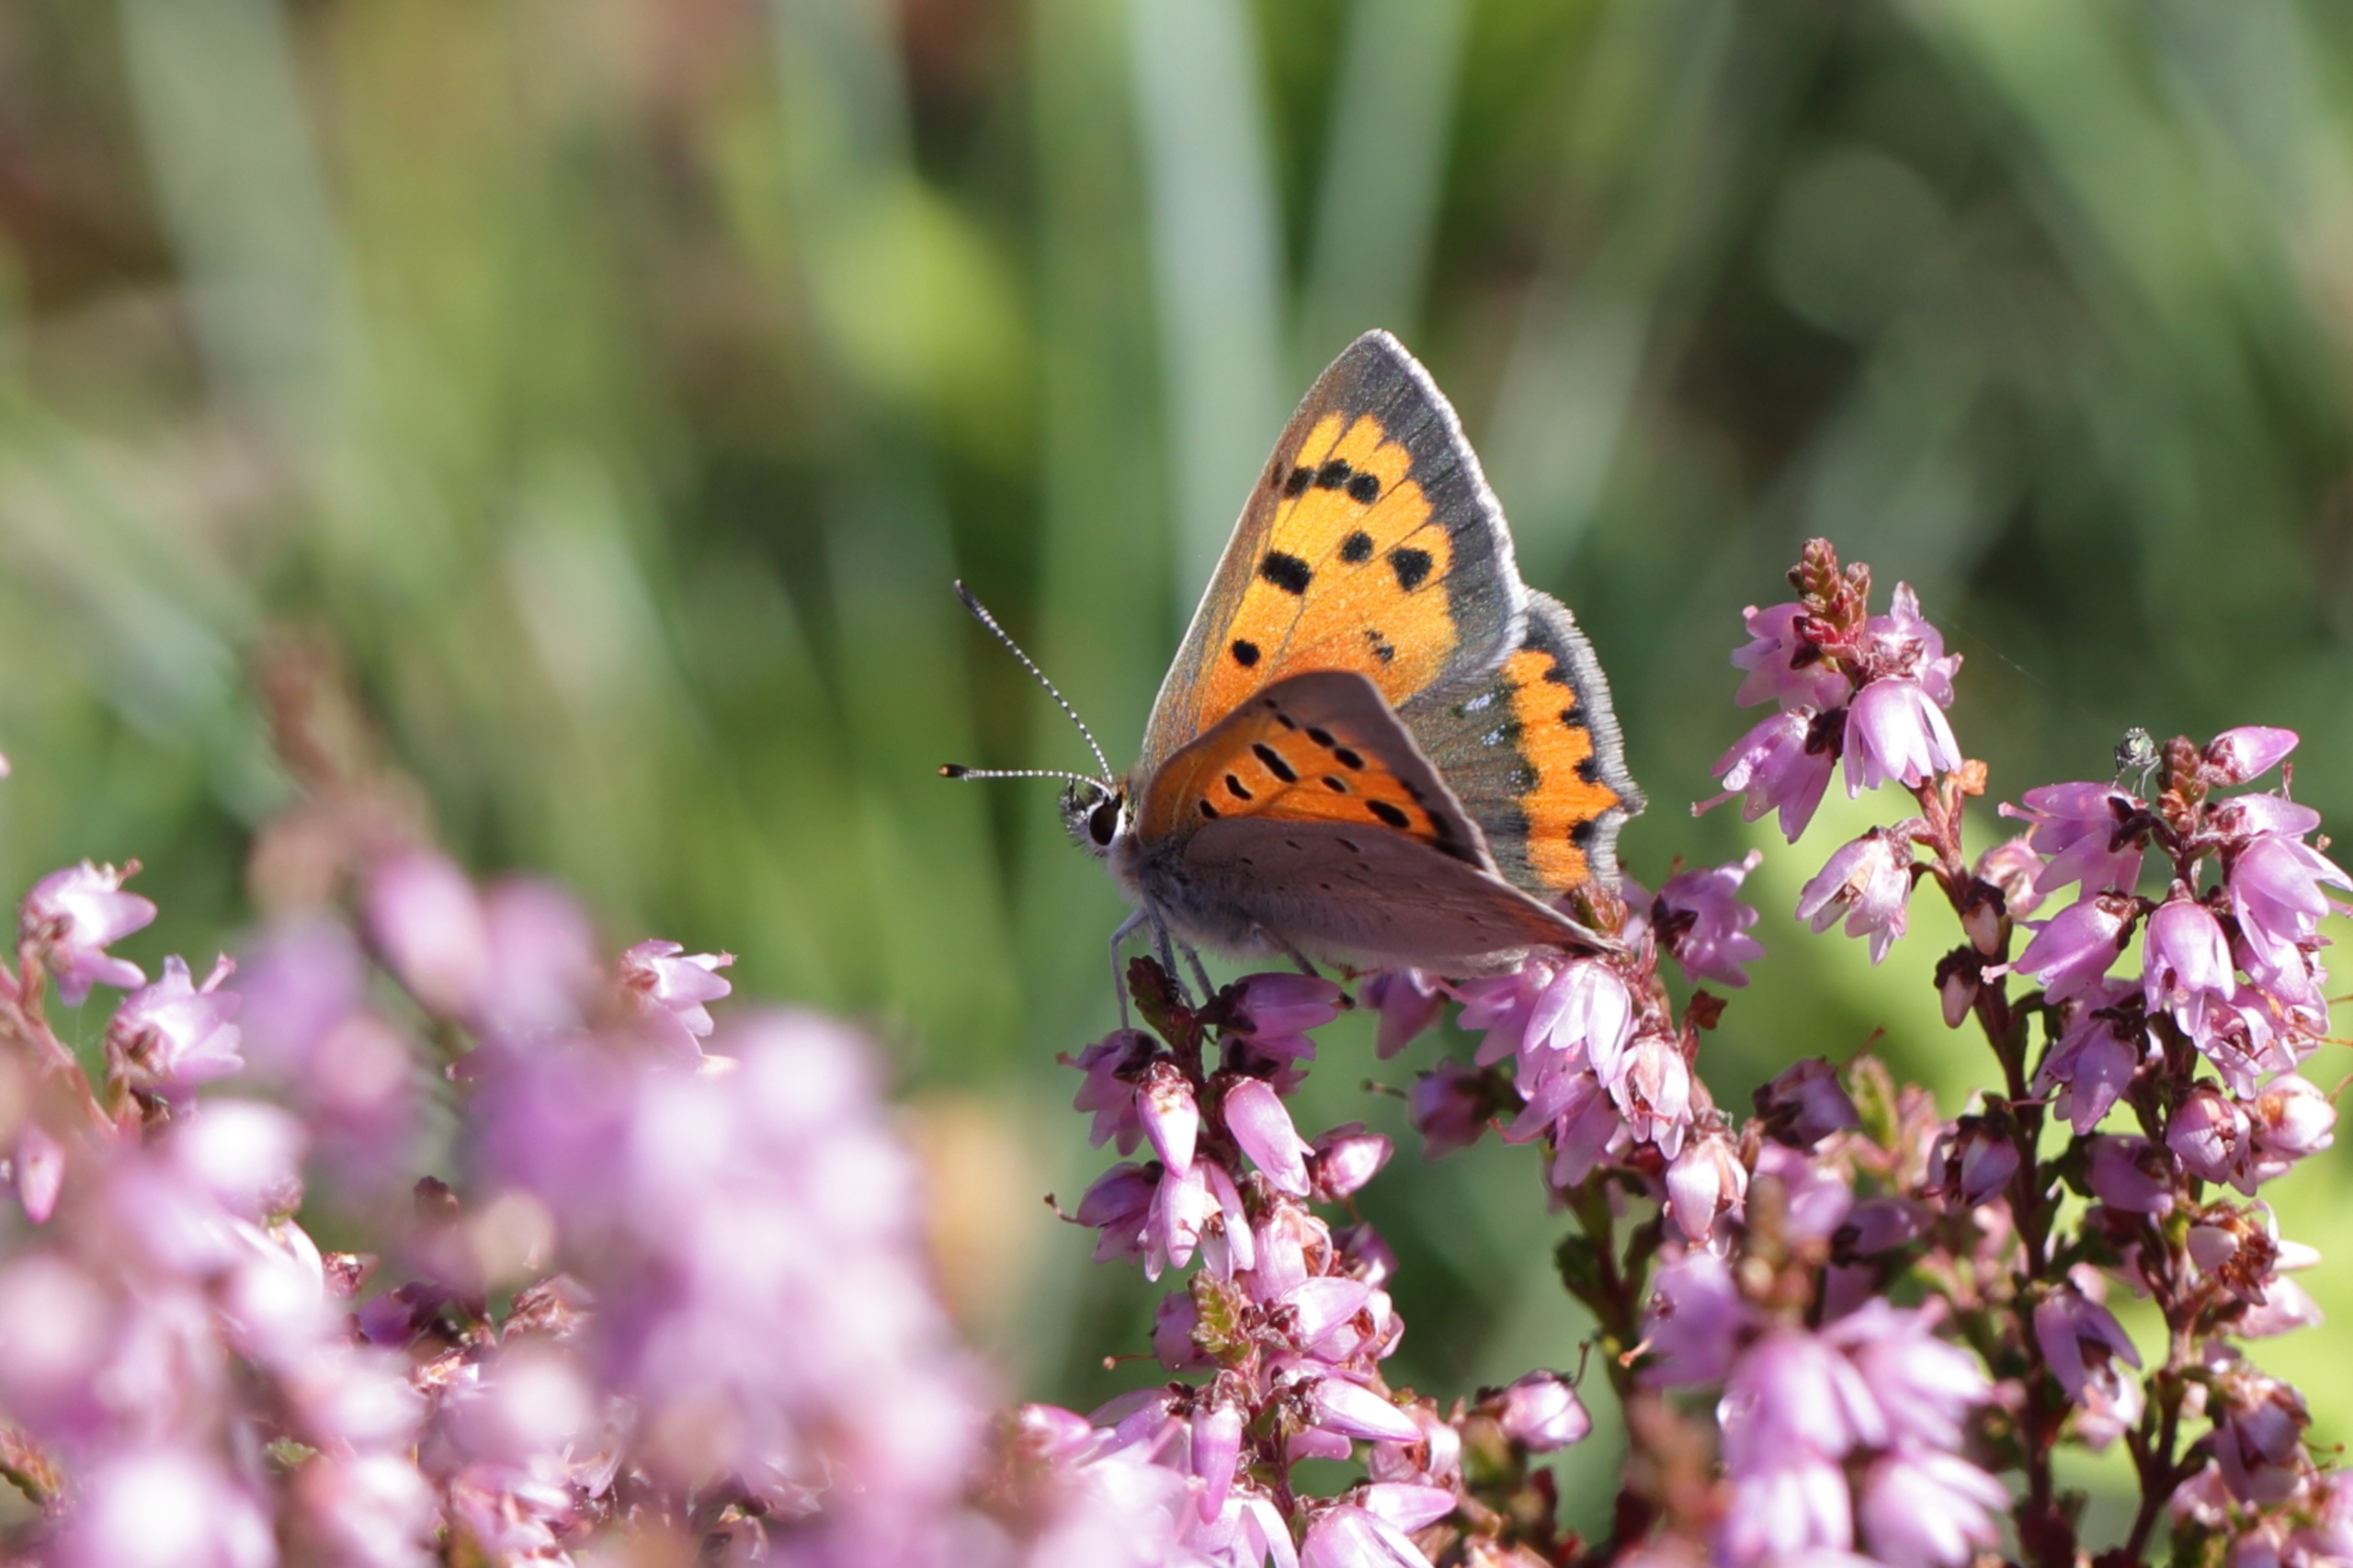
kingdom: Animalia
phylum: Arthropoda
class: Insecta
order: Lepidoptera
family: Lycaenidae
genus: Lycaena
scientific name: Lycaena phlaeas
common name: Lille ildfugl
